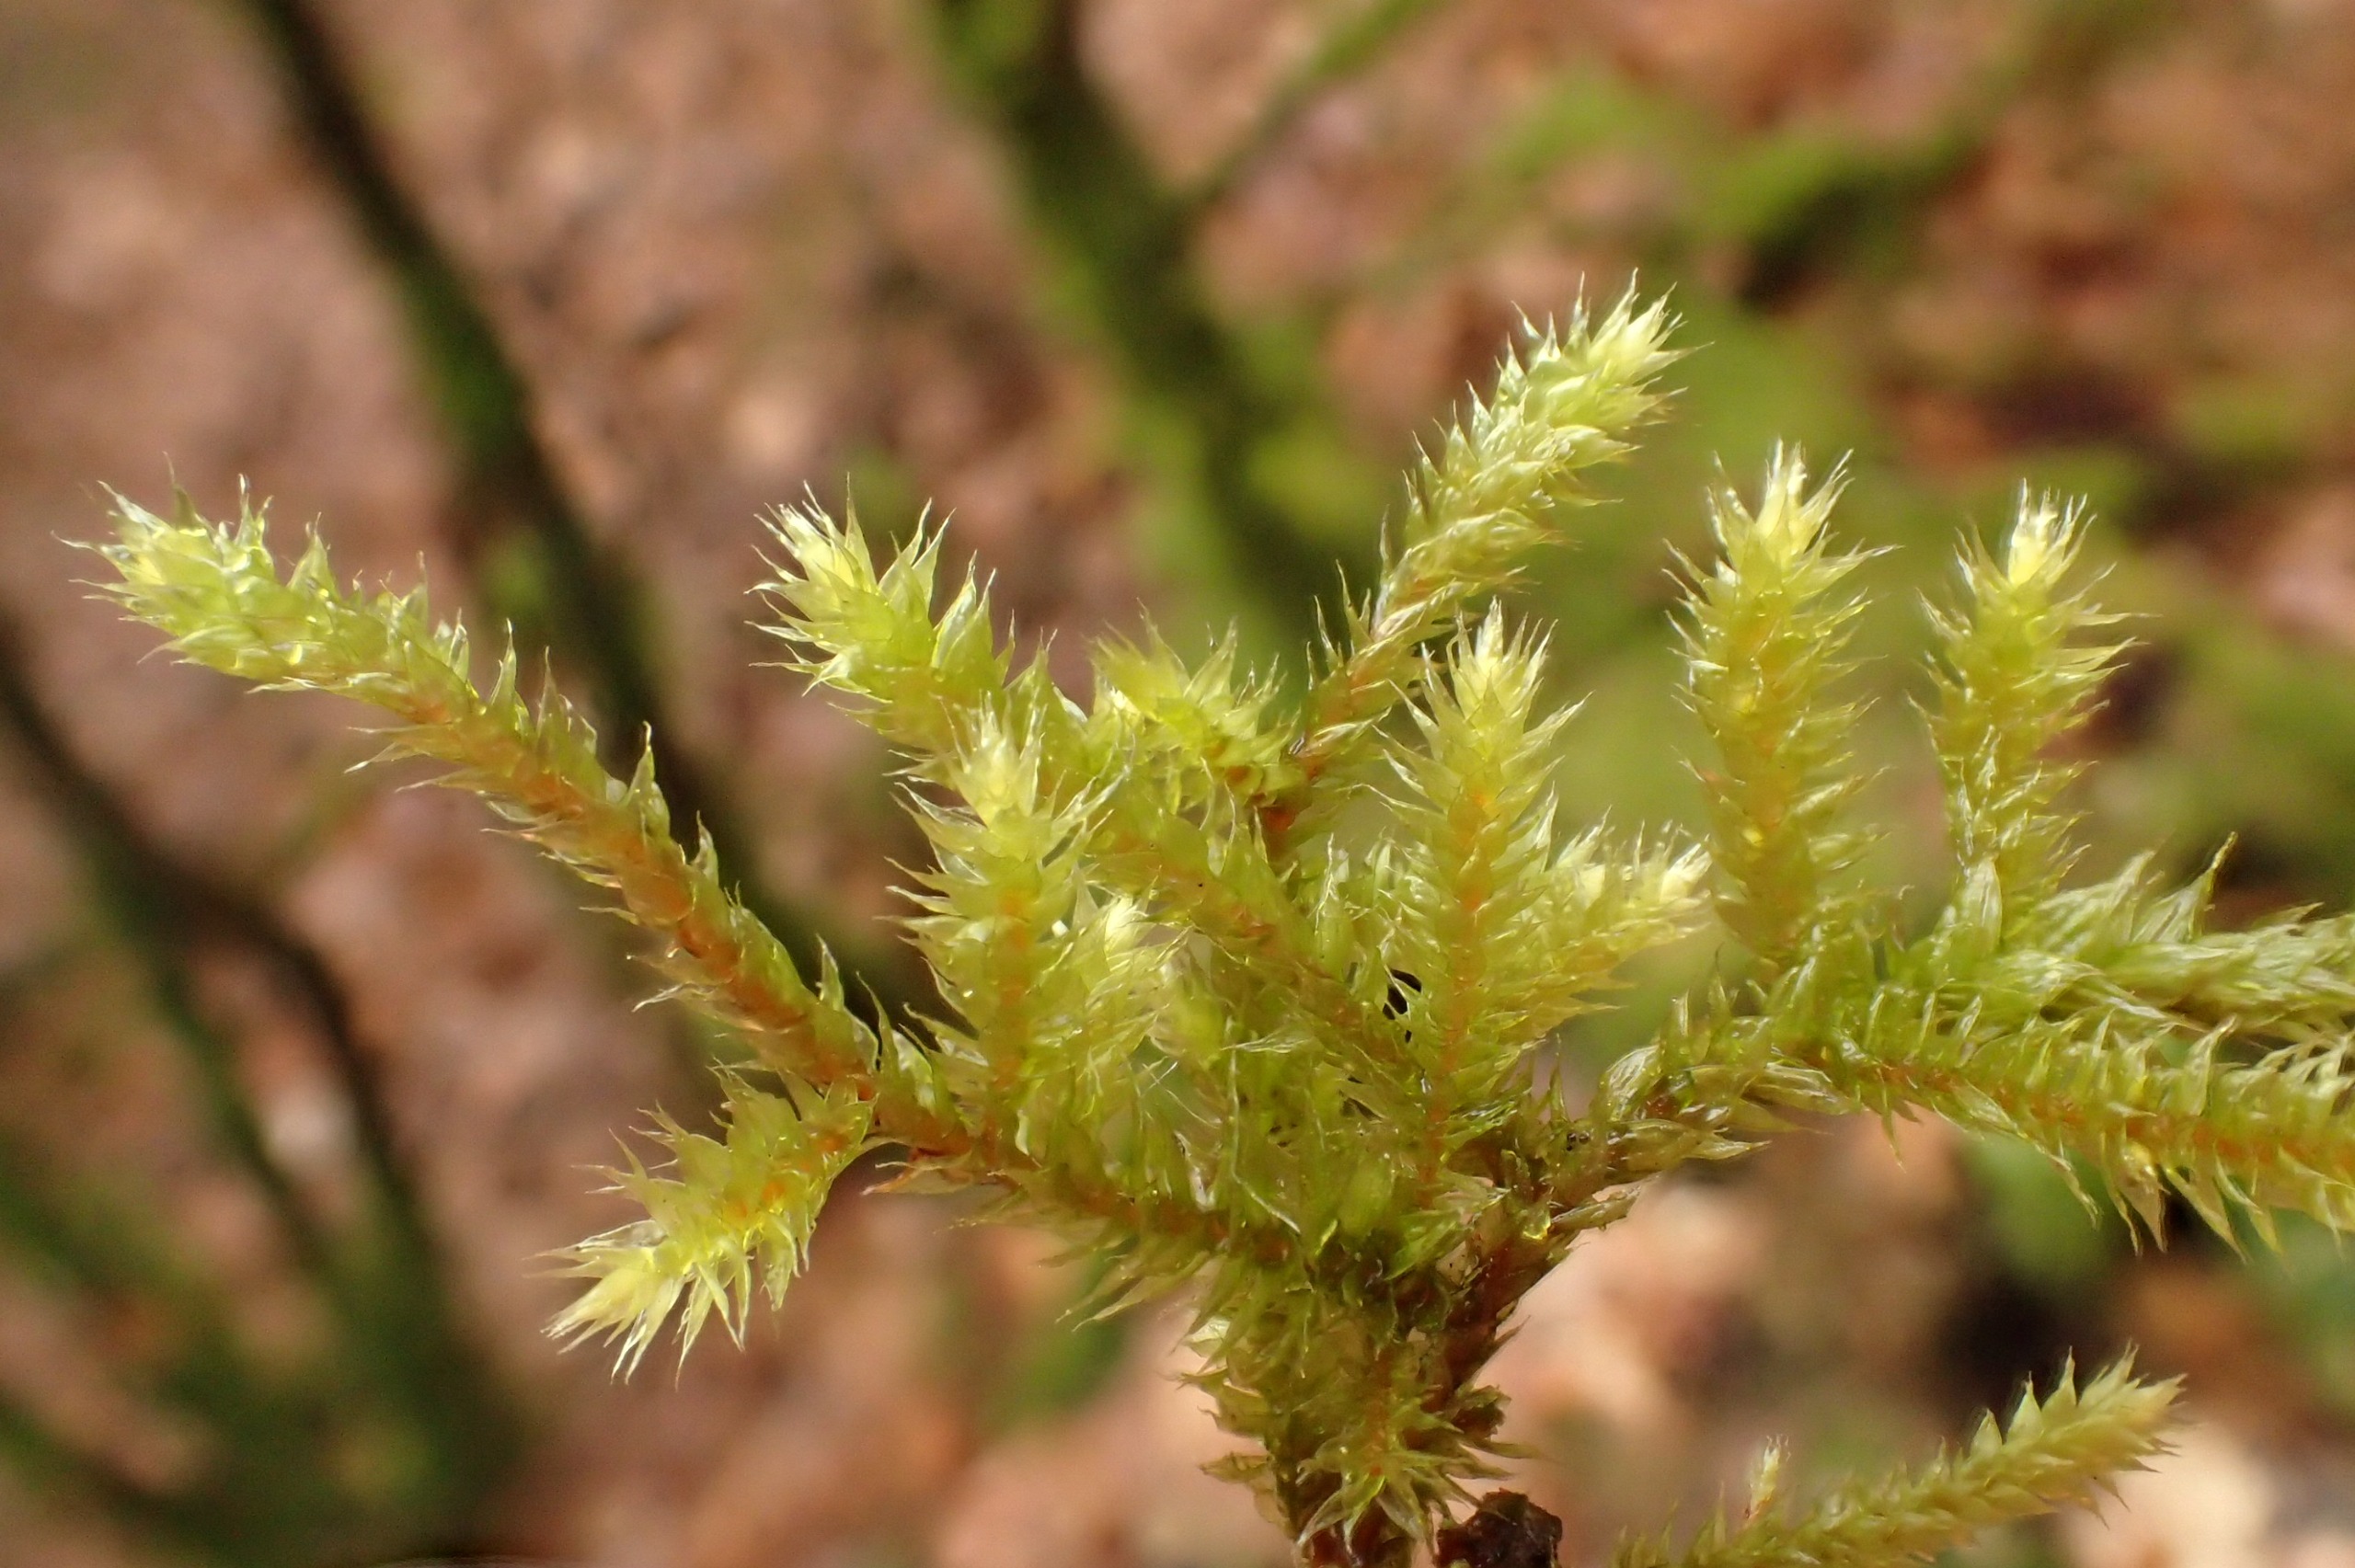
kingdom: Plantae
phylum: Bryophyta
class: Bryopsida
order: Hypnales
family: Antitrichiaceae
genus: Antitrichia
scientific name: Antitrichia curtipendula
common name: Åben krogtand
